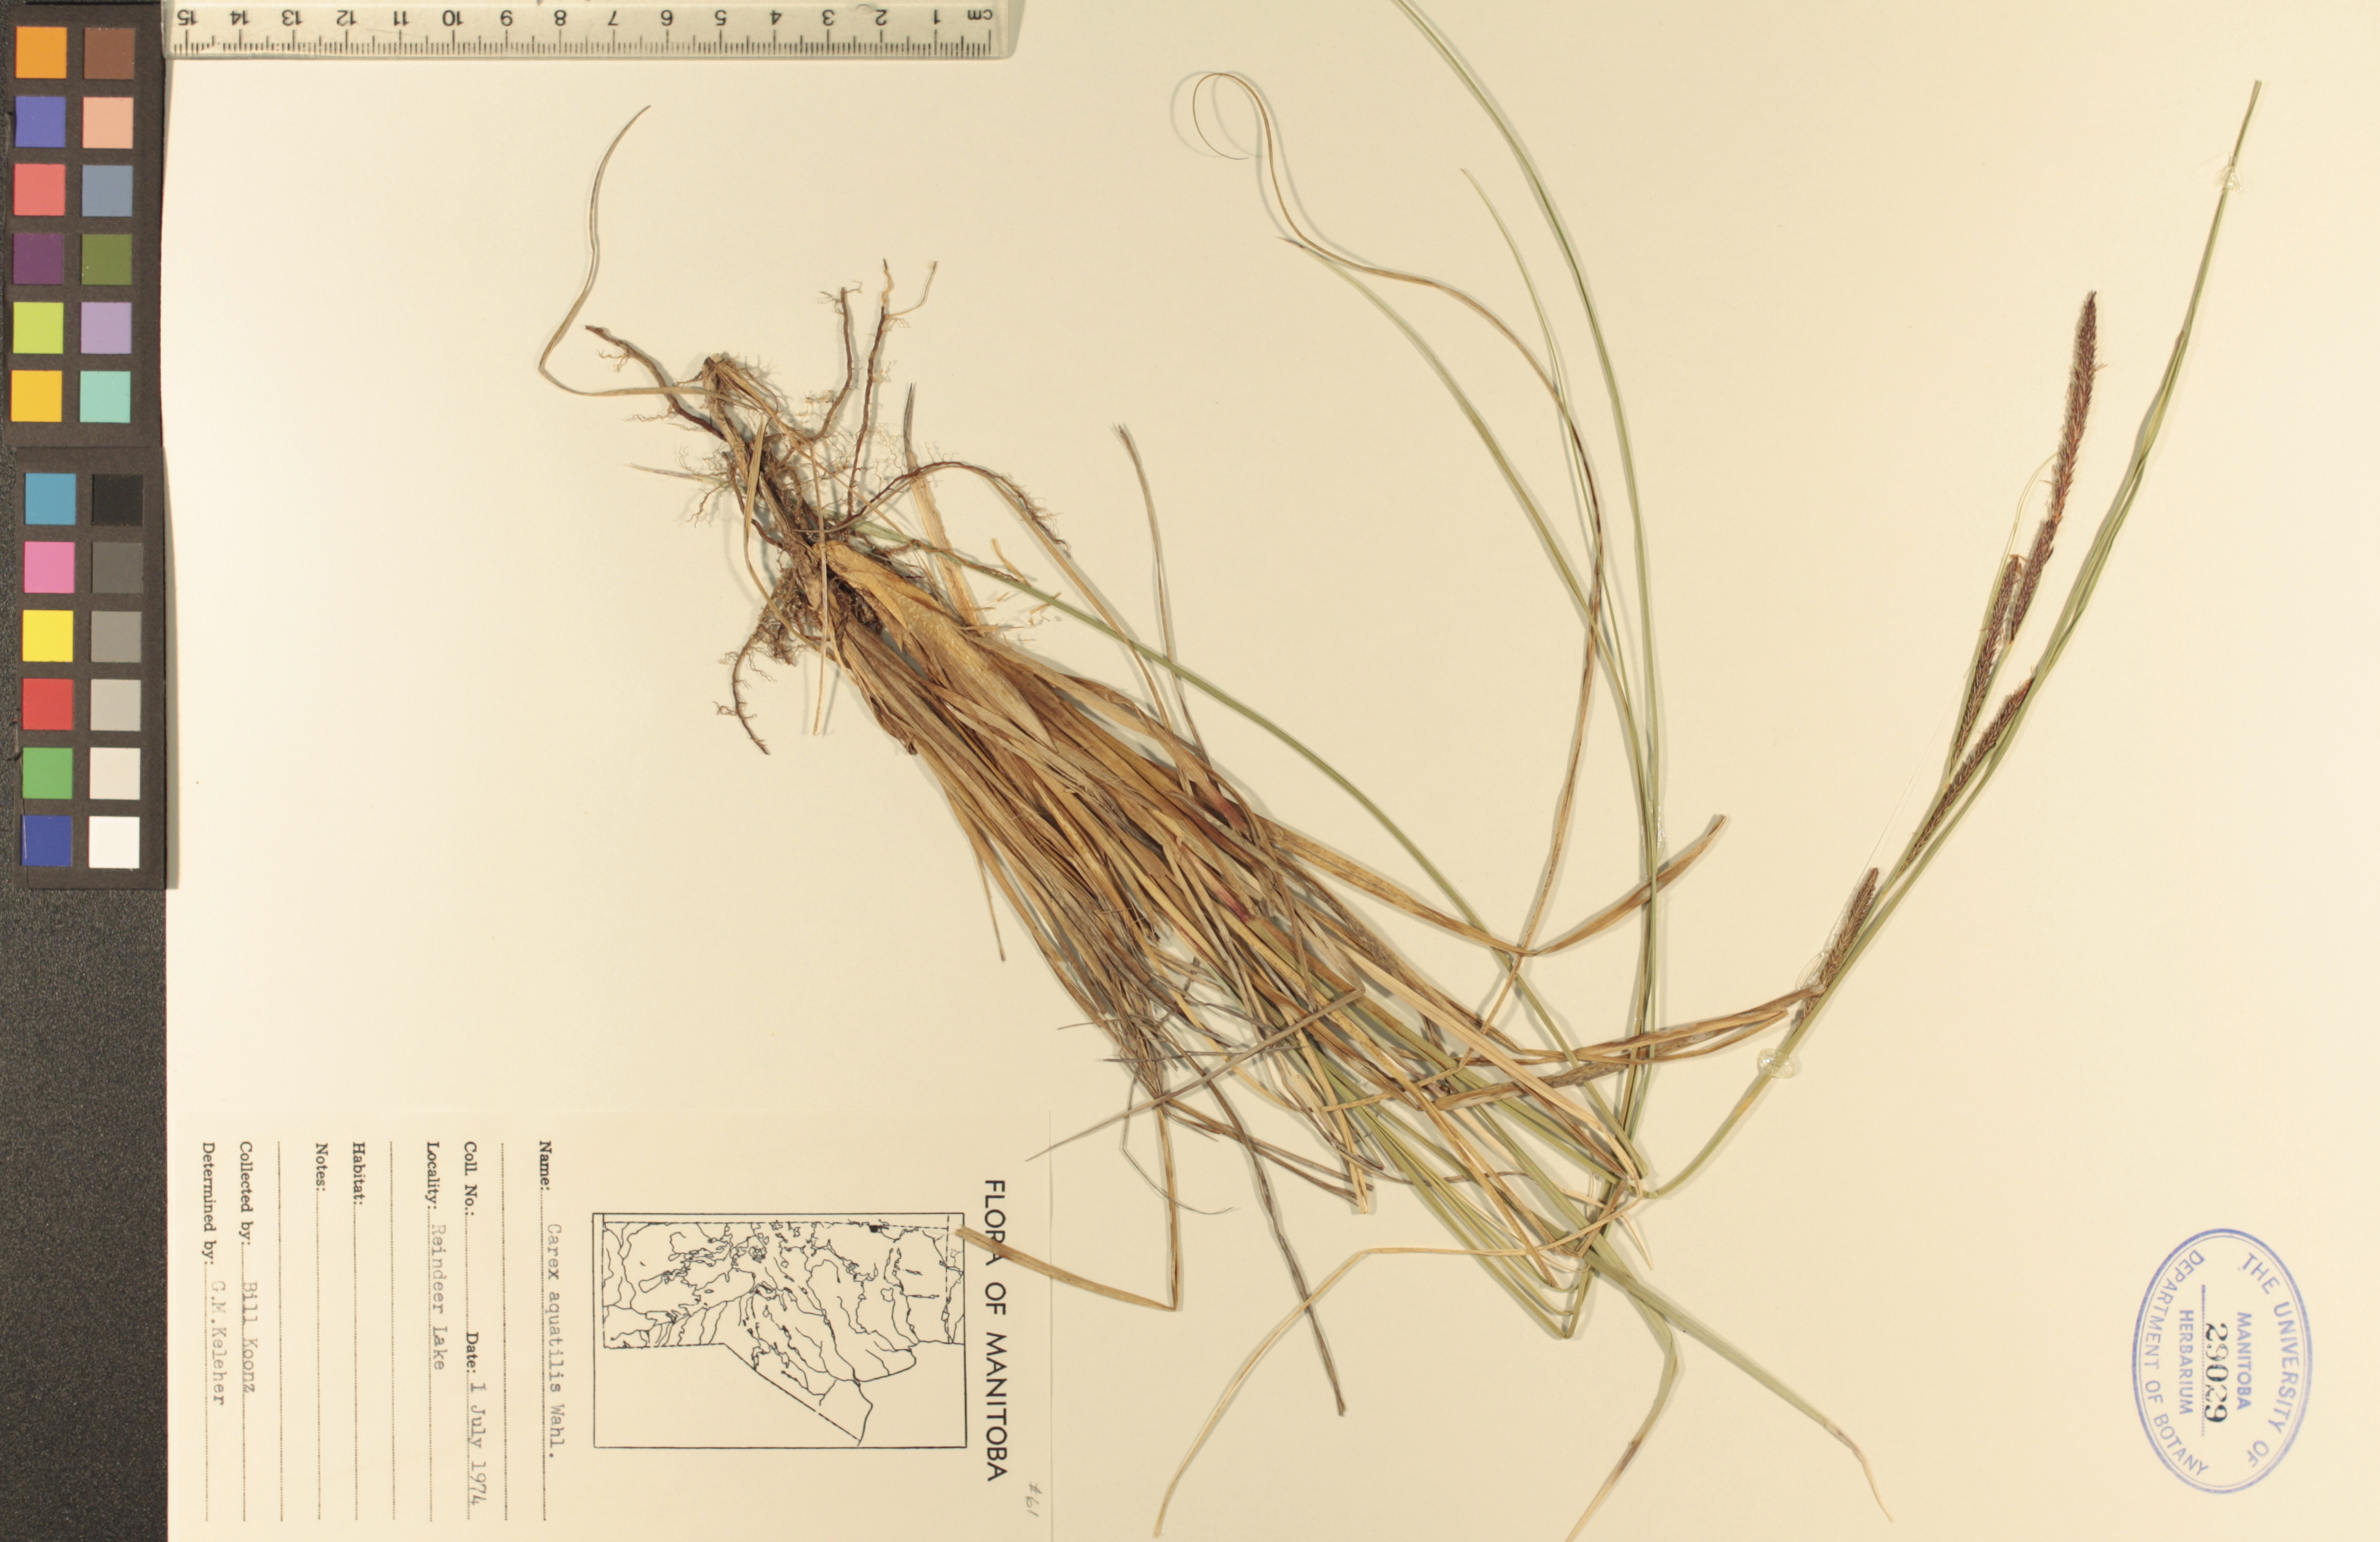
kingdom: Plantae
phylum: Tracheophyta
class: Liliopsida
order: Poales
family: Cyperaceae
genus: Carex
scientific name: Carex aquatilis
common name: Water sedge
